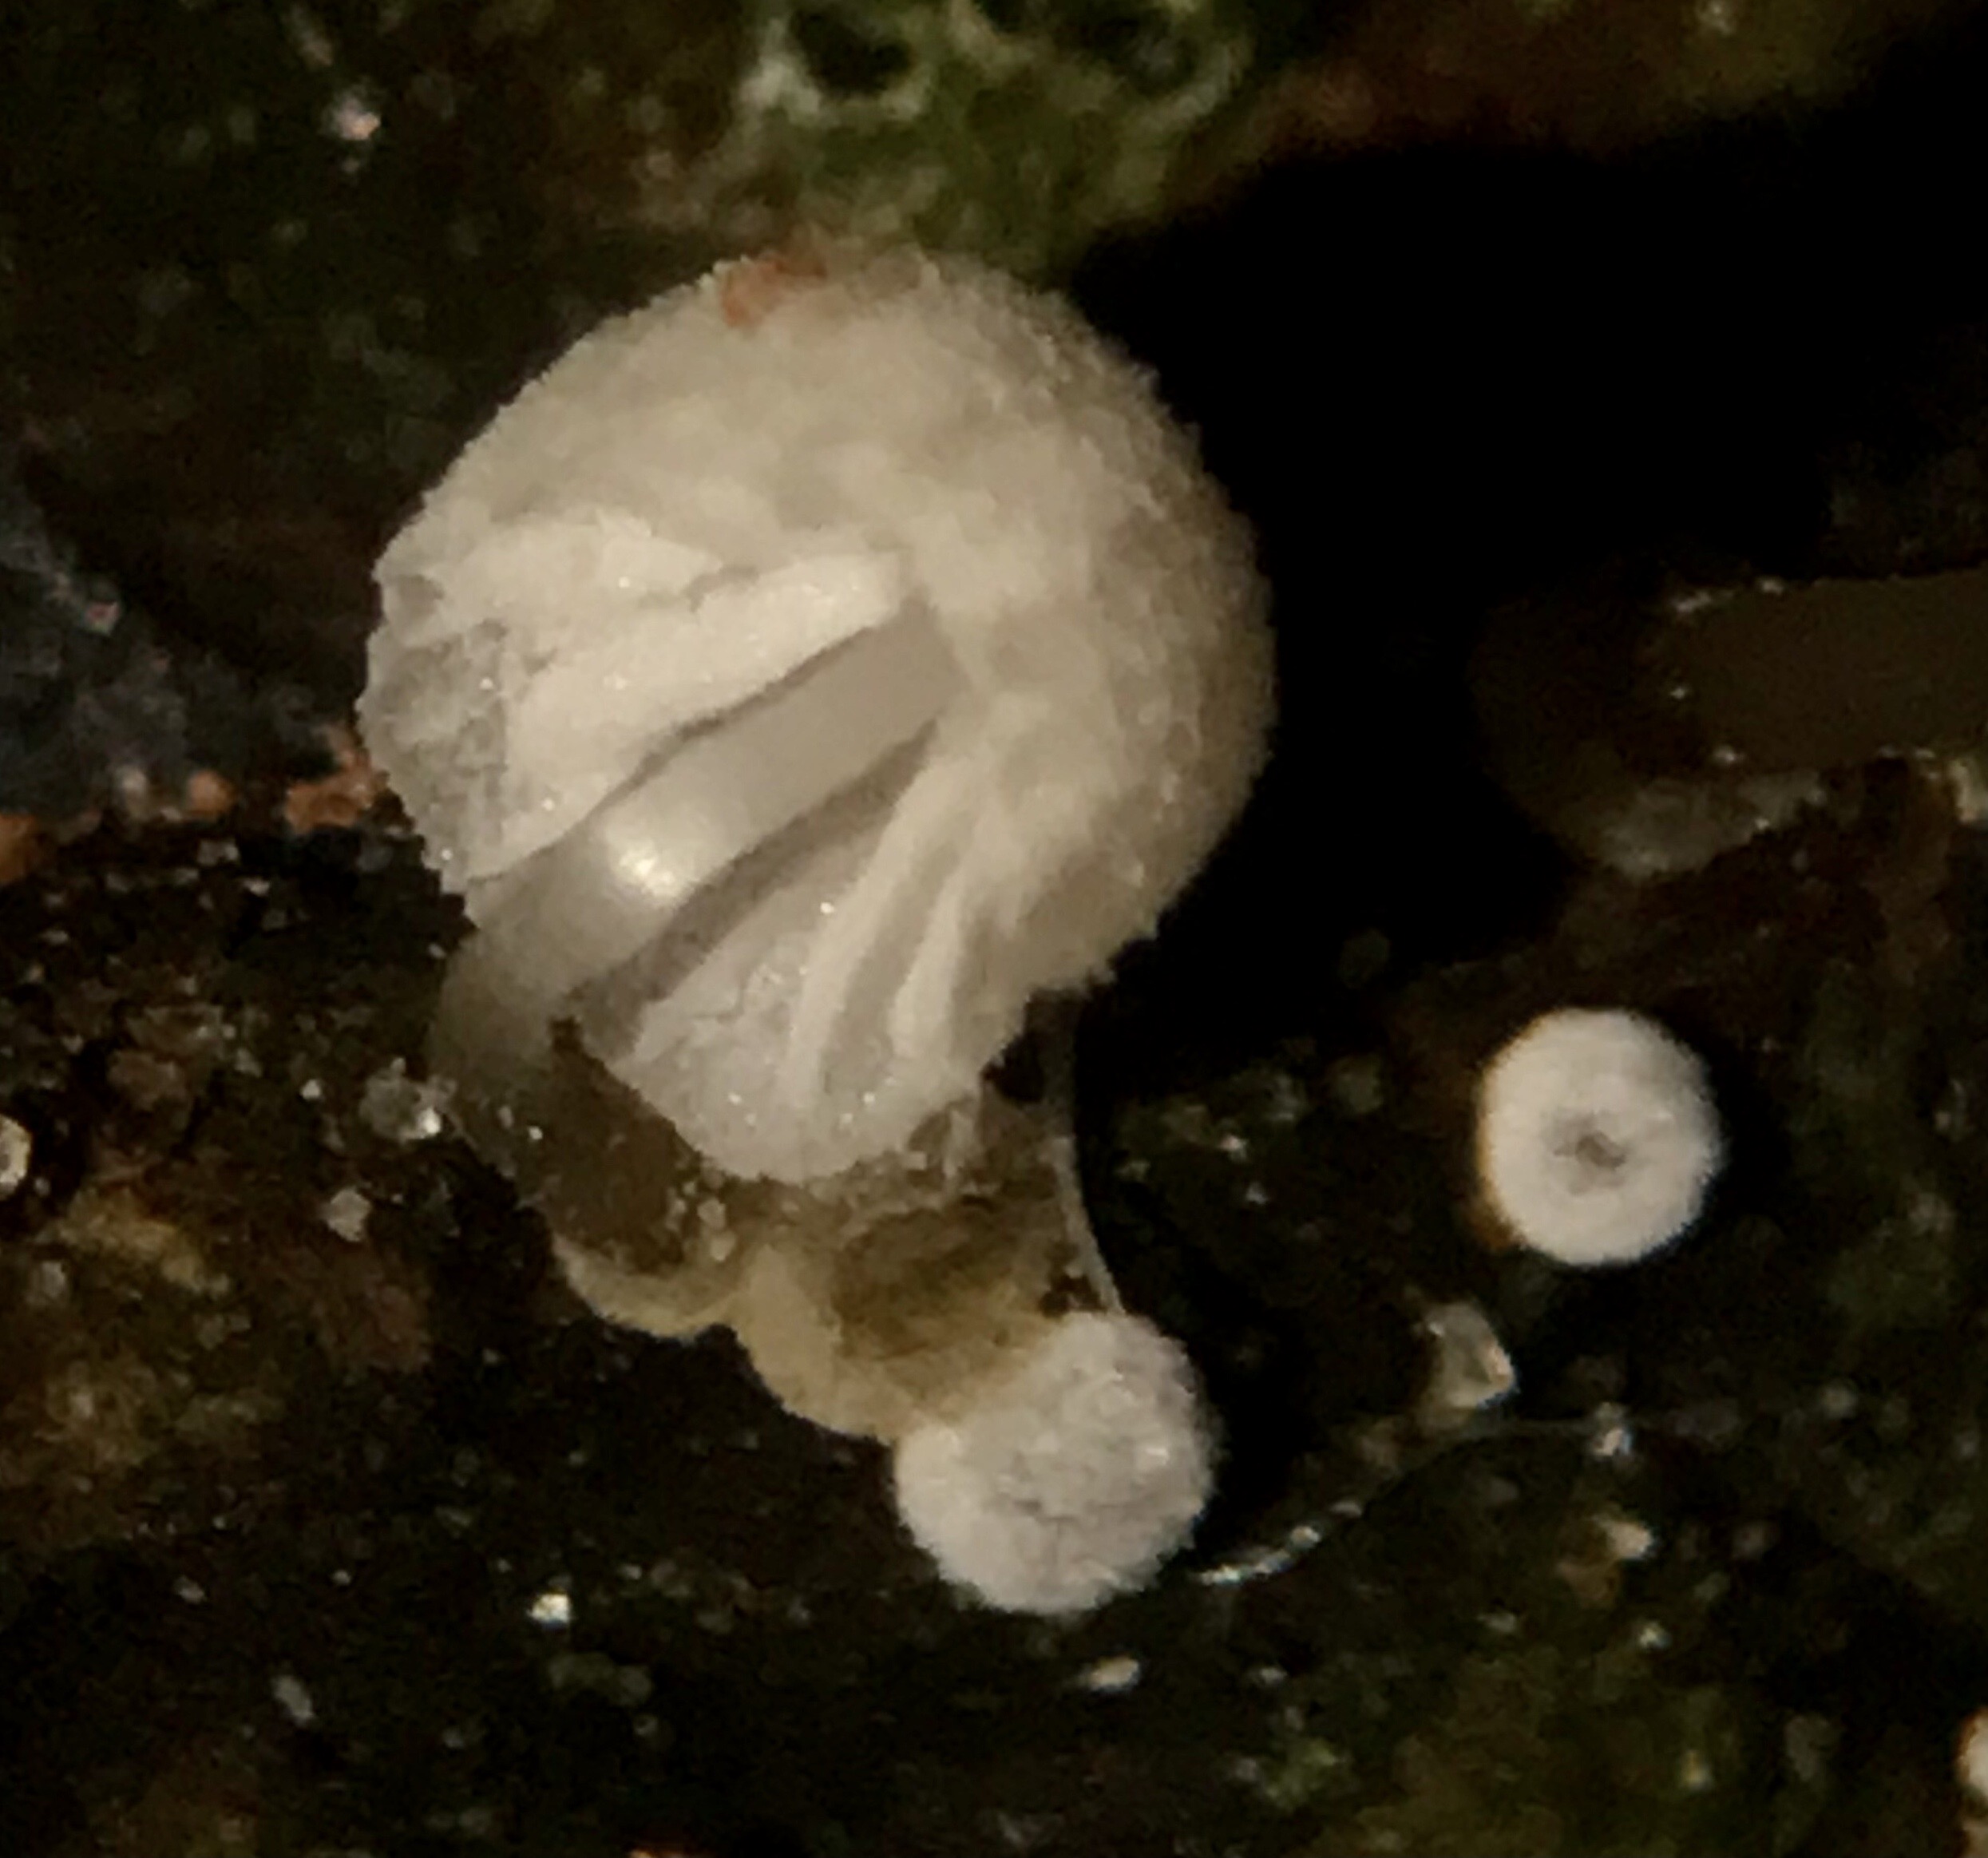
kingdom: Fungi
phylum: Basidiomycota
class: Agaricomycetes
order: Agaricales
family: Mycenaceae
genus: Mycena
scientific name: Mycena clavularis
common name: dunskivet huesvamp
